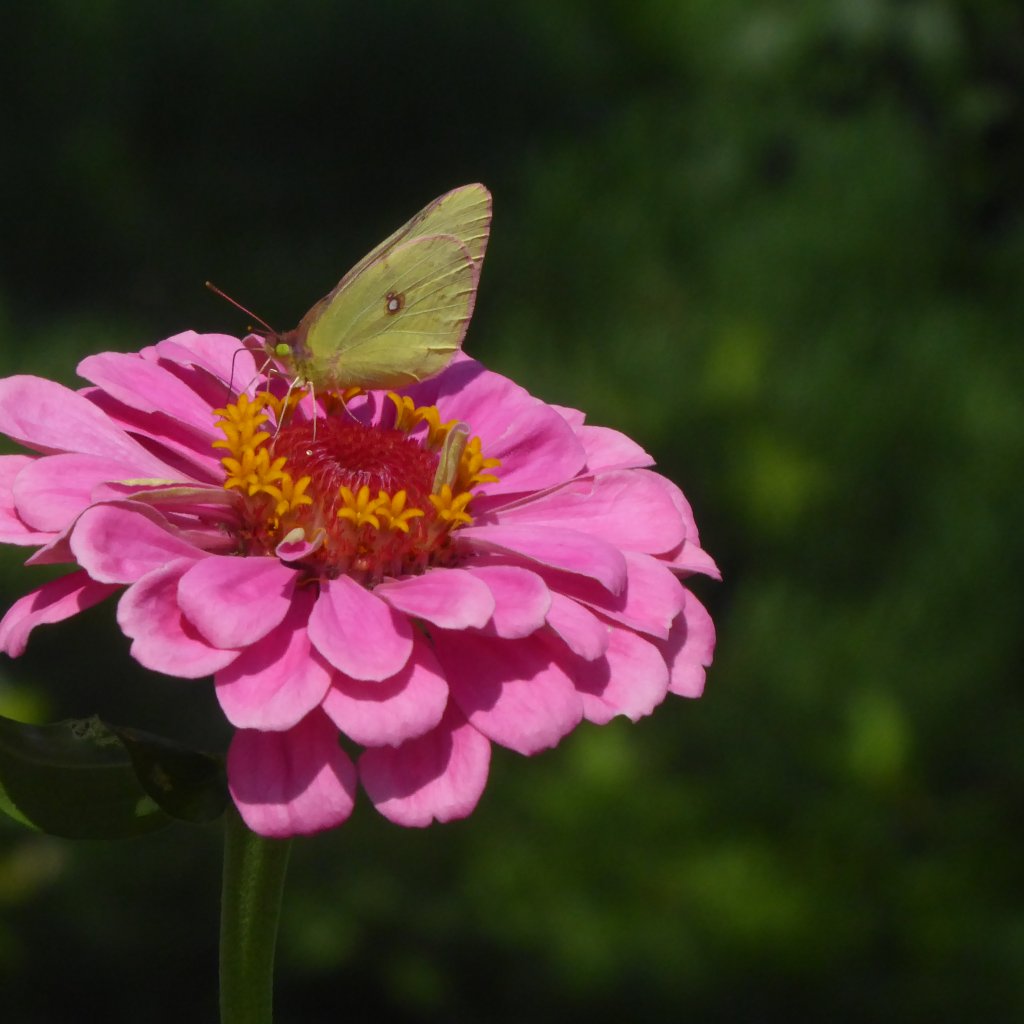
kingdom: Animalia
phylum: Arthropoda
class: Insecta
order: Lepidoptera
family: Pieridae
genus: Colias
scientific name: Colias philodice
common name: Clouded Sulphur
